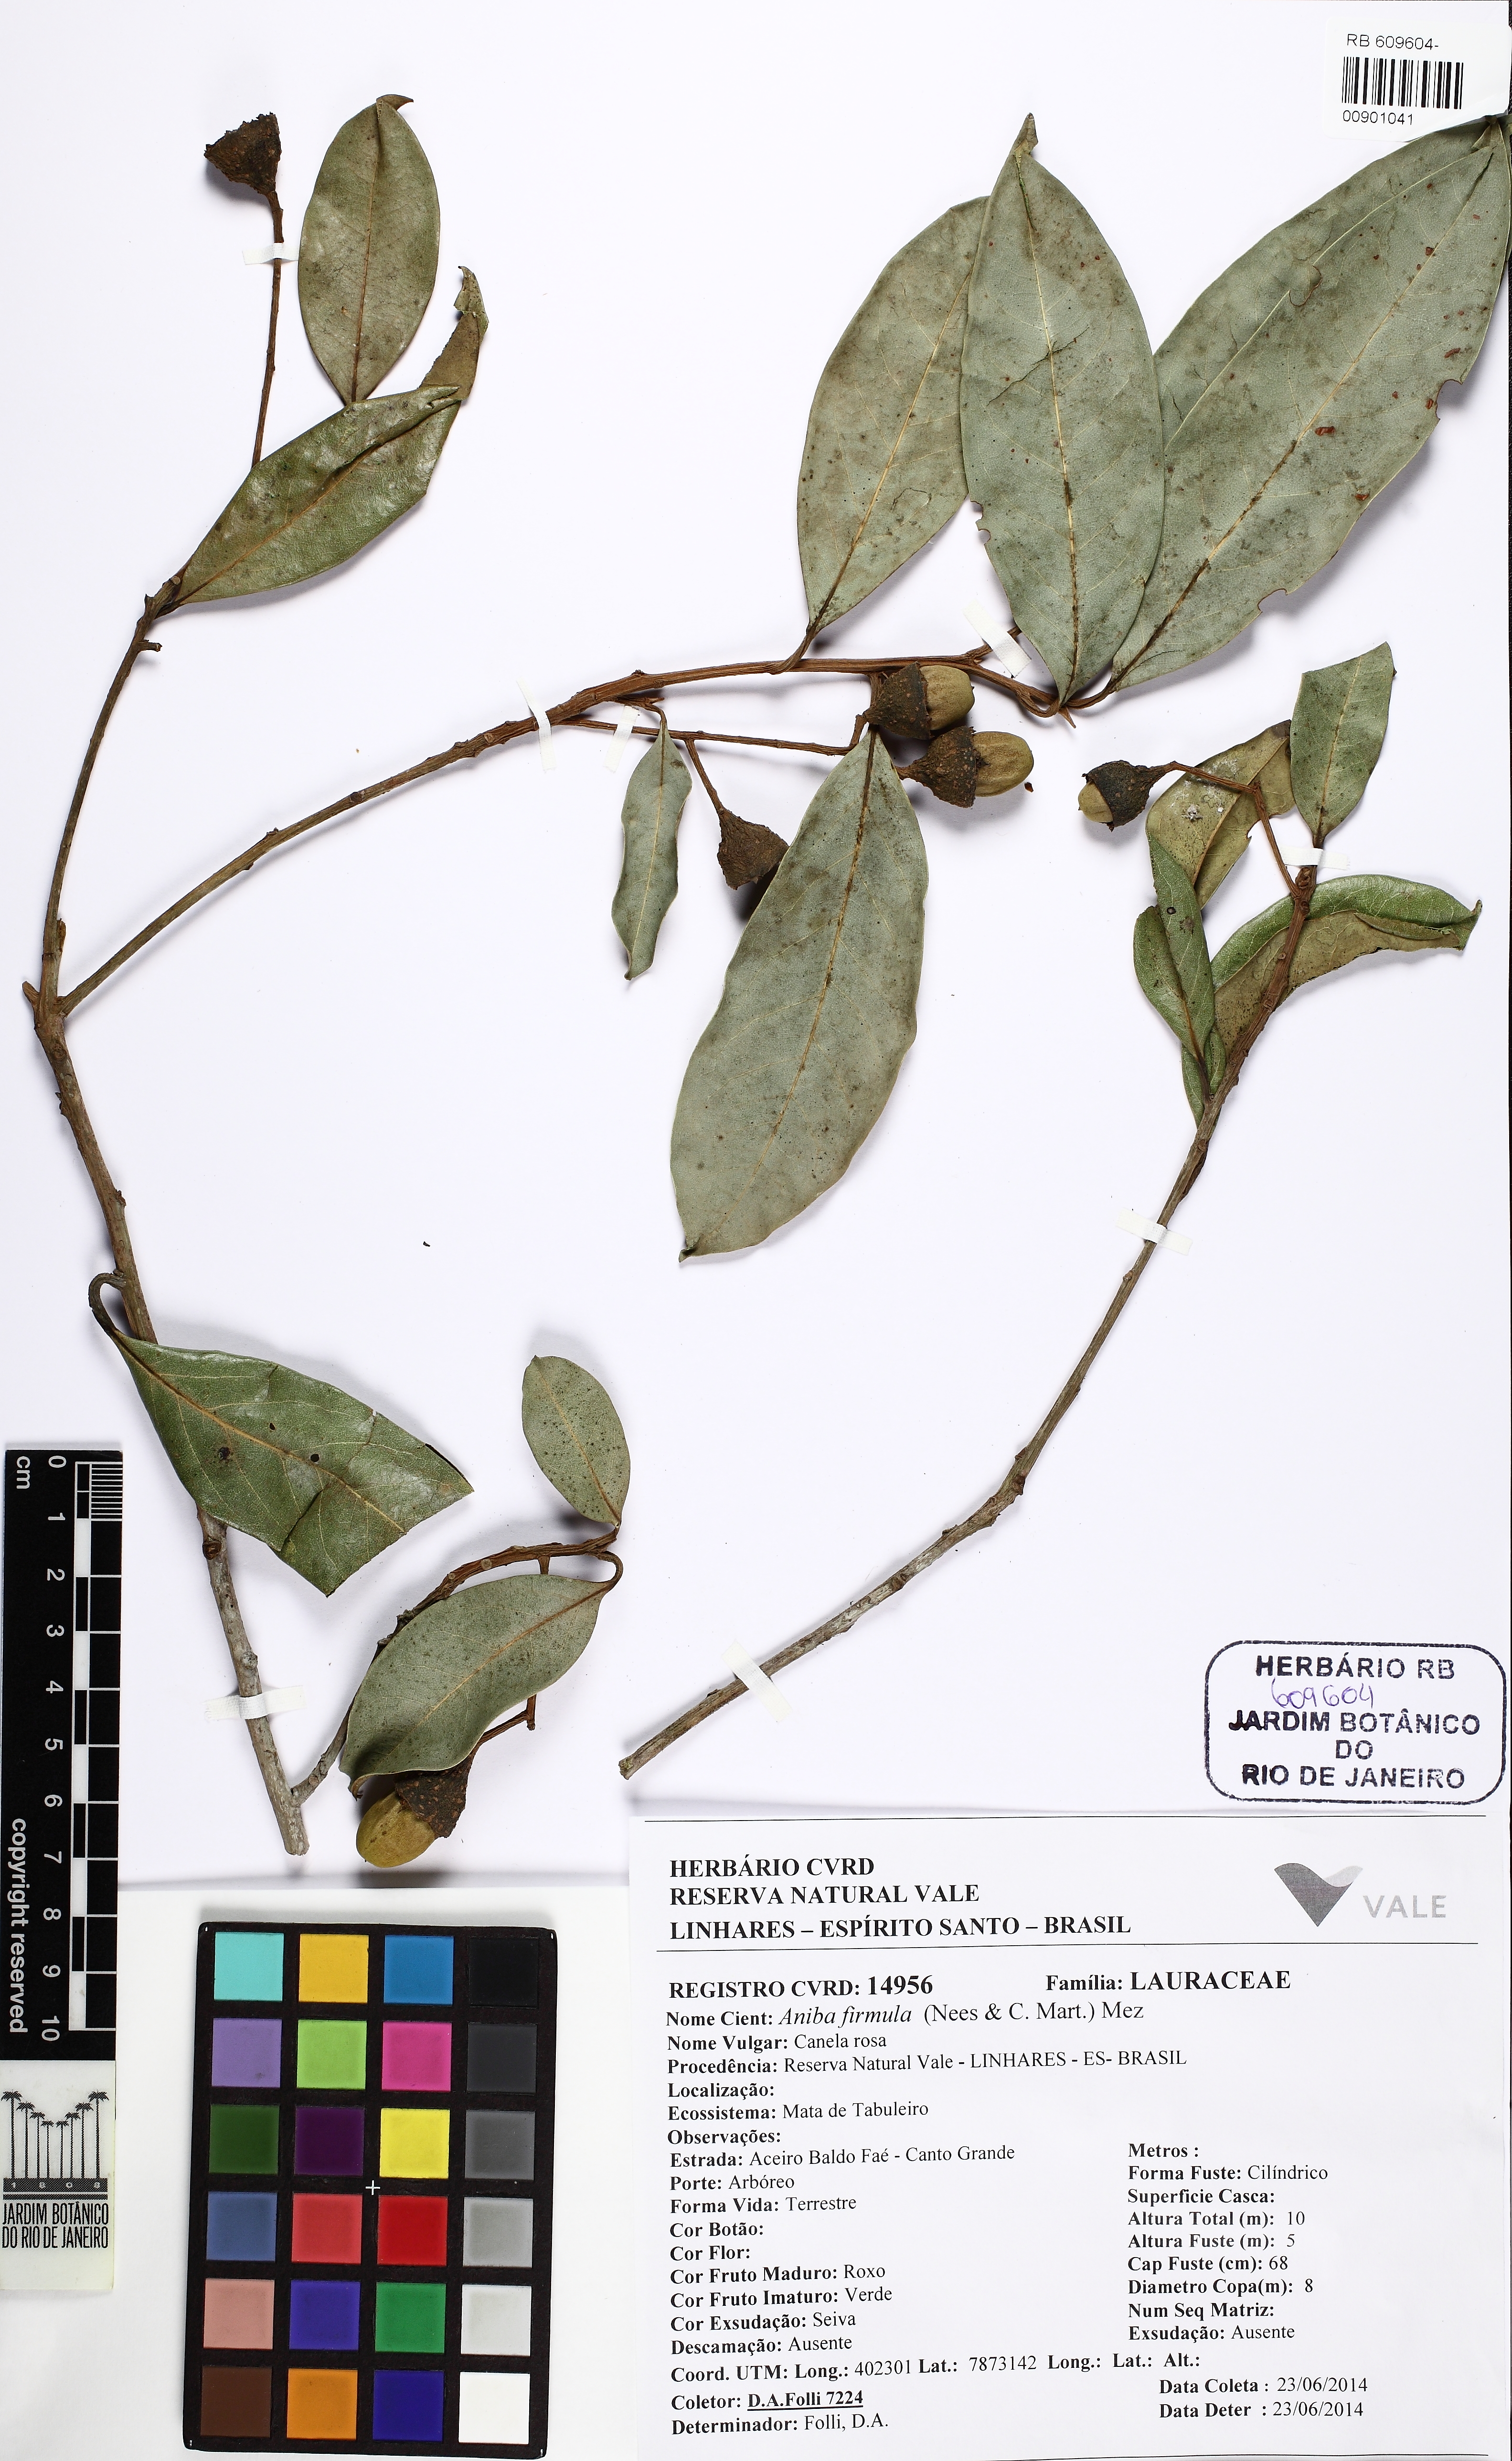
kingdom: Plantae
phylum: Tracheophyta
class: Magnoliopsida
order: Laurales
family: Lauraceae
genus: Aniba
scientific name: Aniba firmula
